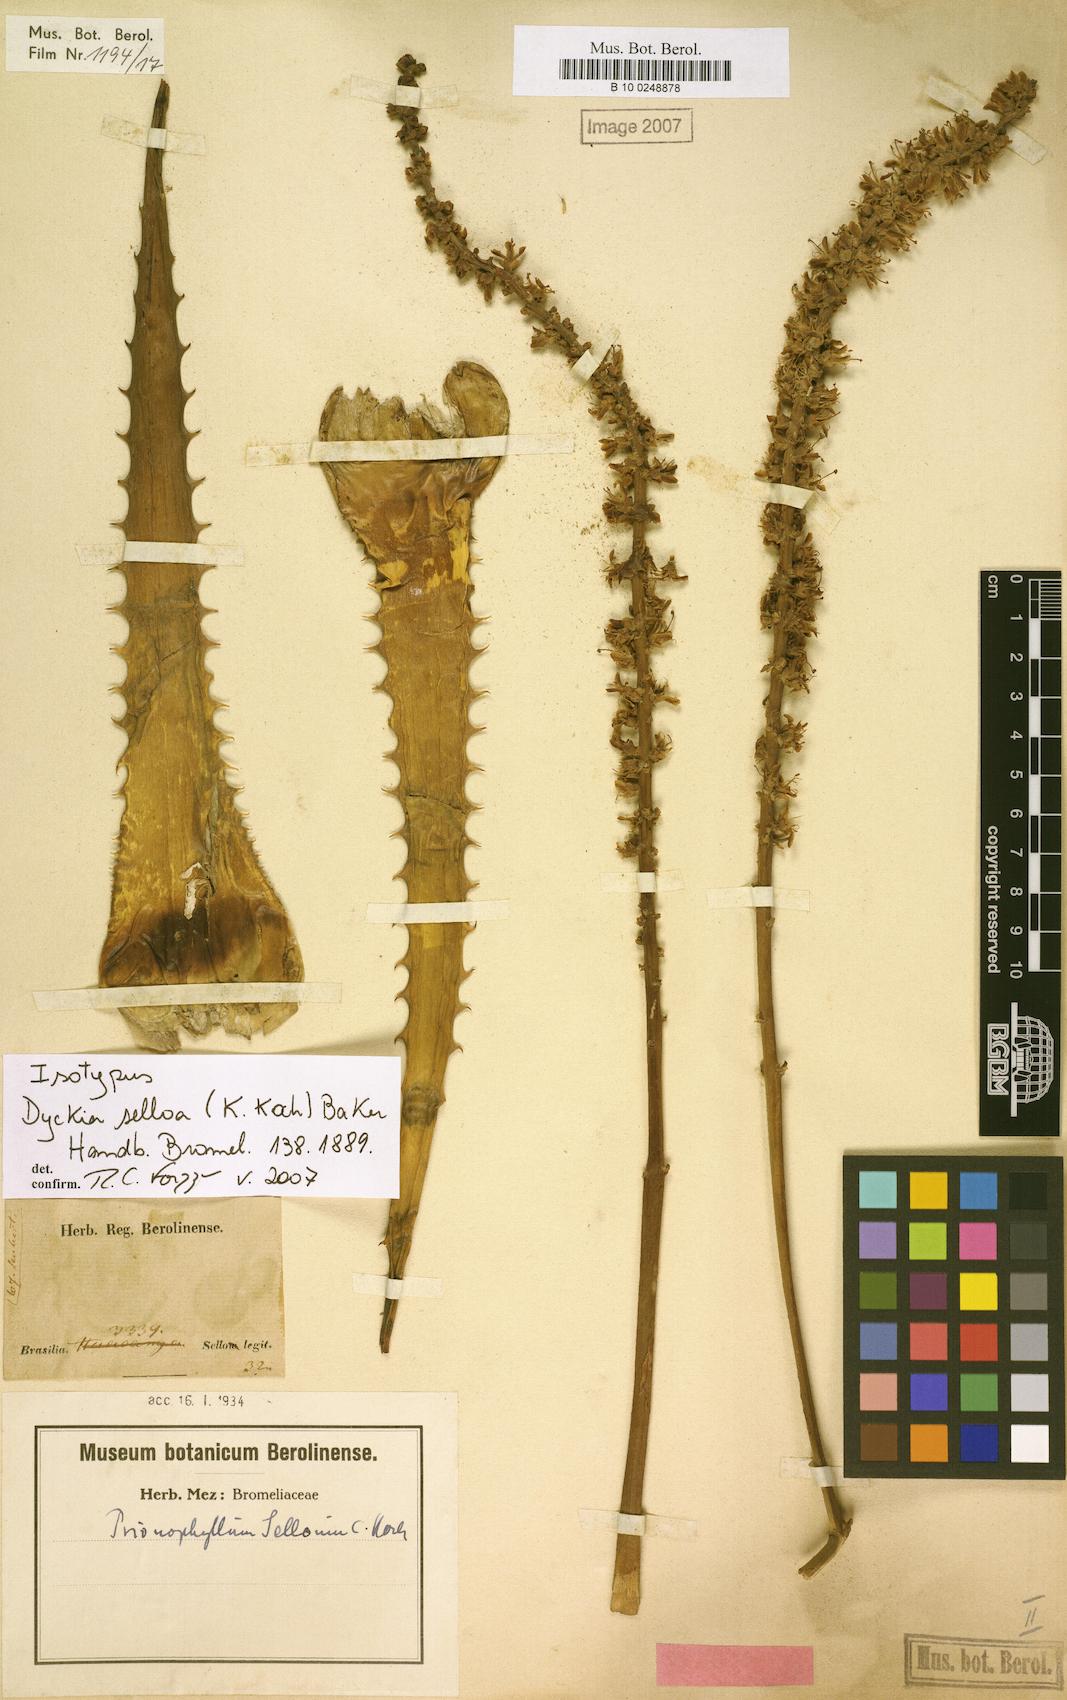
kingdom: Plantae
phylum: Tracheophyta
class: Liliopsida
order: Poales
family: Bromeliaceae
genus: Dyckia
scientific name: Dyckia selloa
